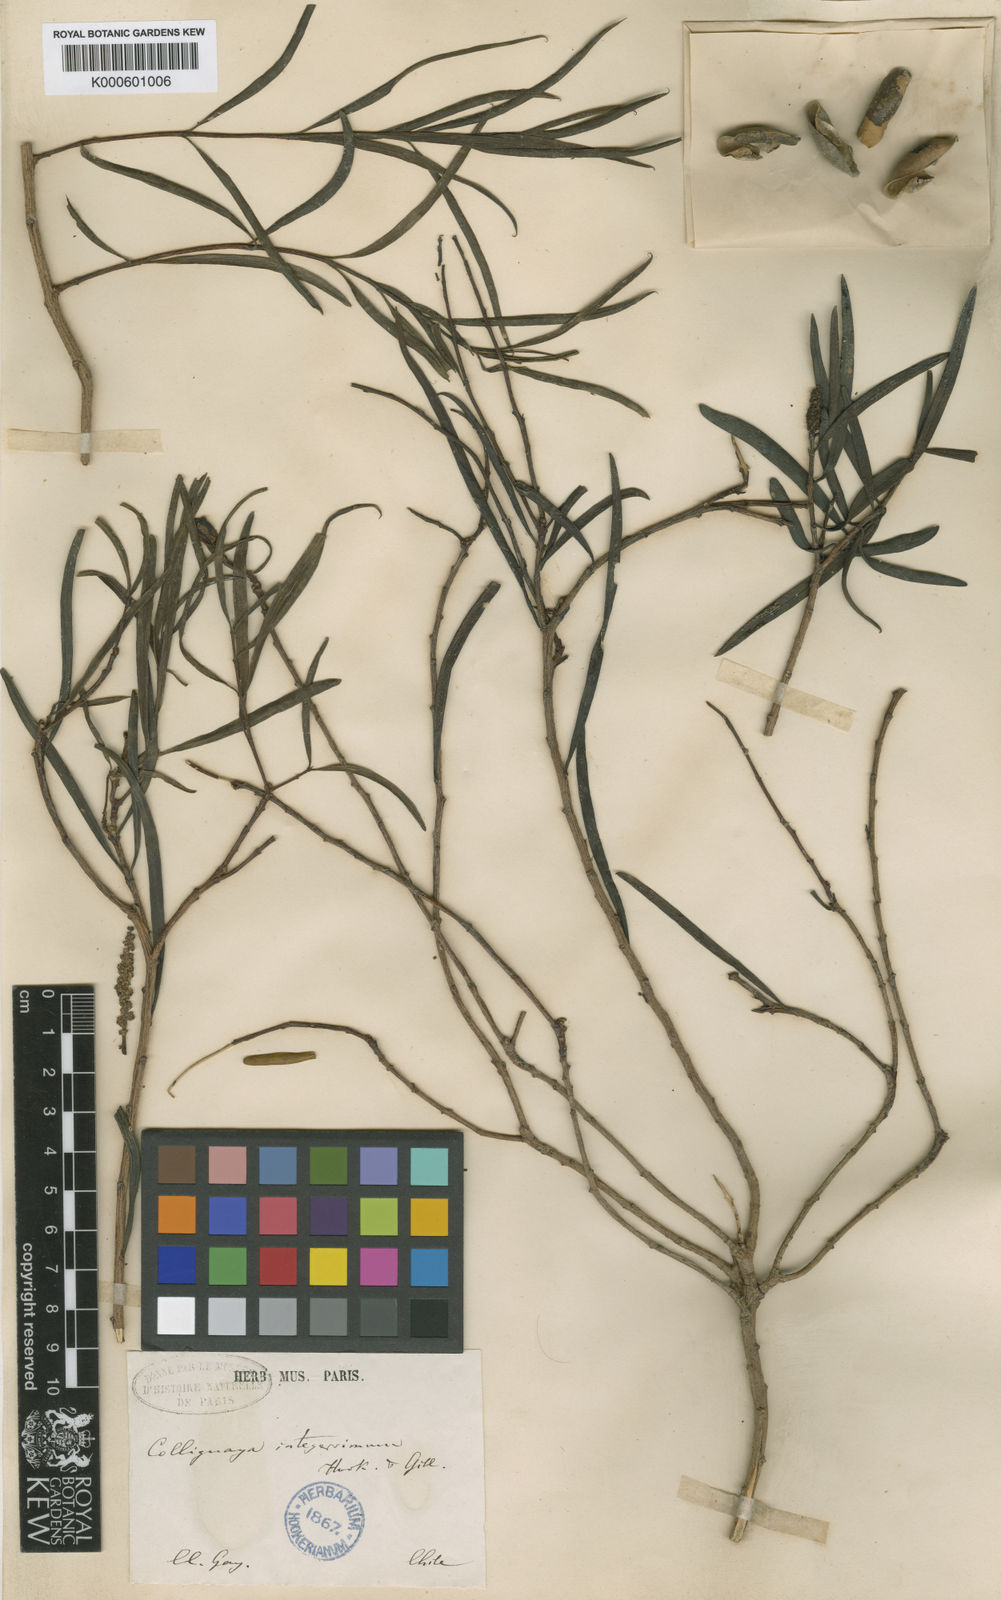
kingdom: Plantae
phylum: Tracheophyta
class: Magnoliopsida
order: Malpighiales
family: Euphorbiaceae
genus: Colliguaja
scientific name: Colliguaja integerrima
